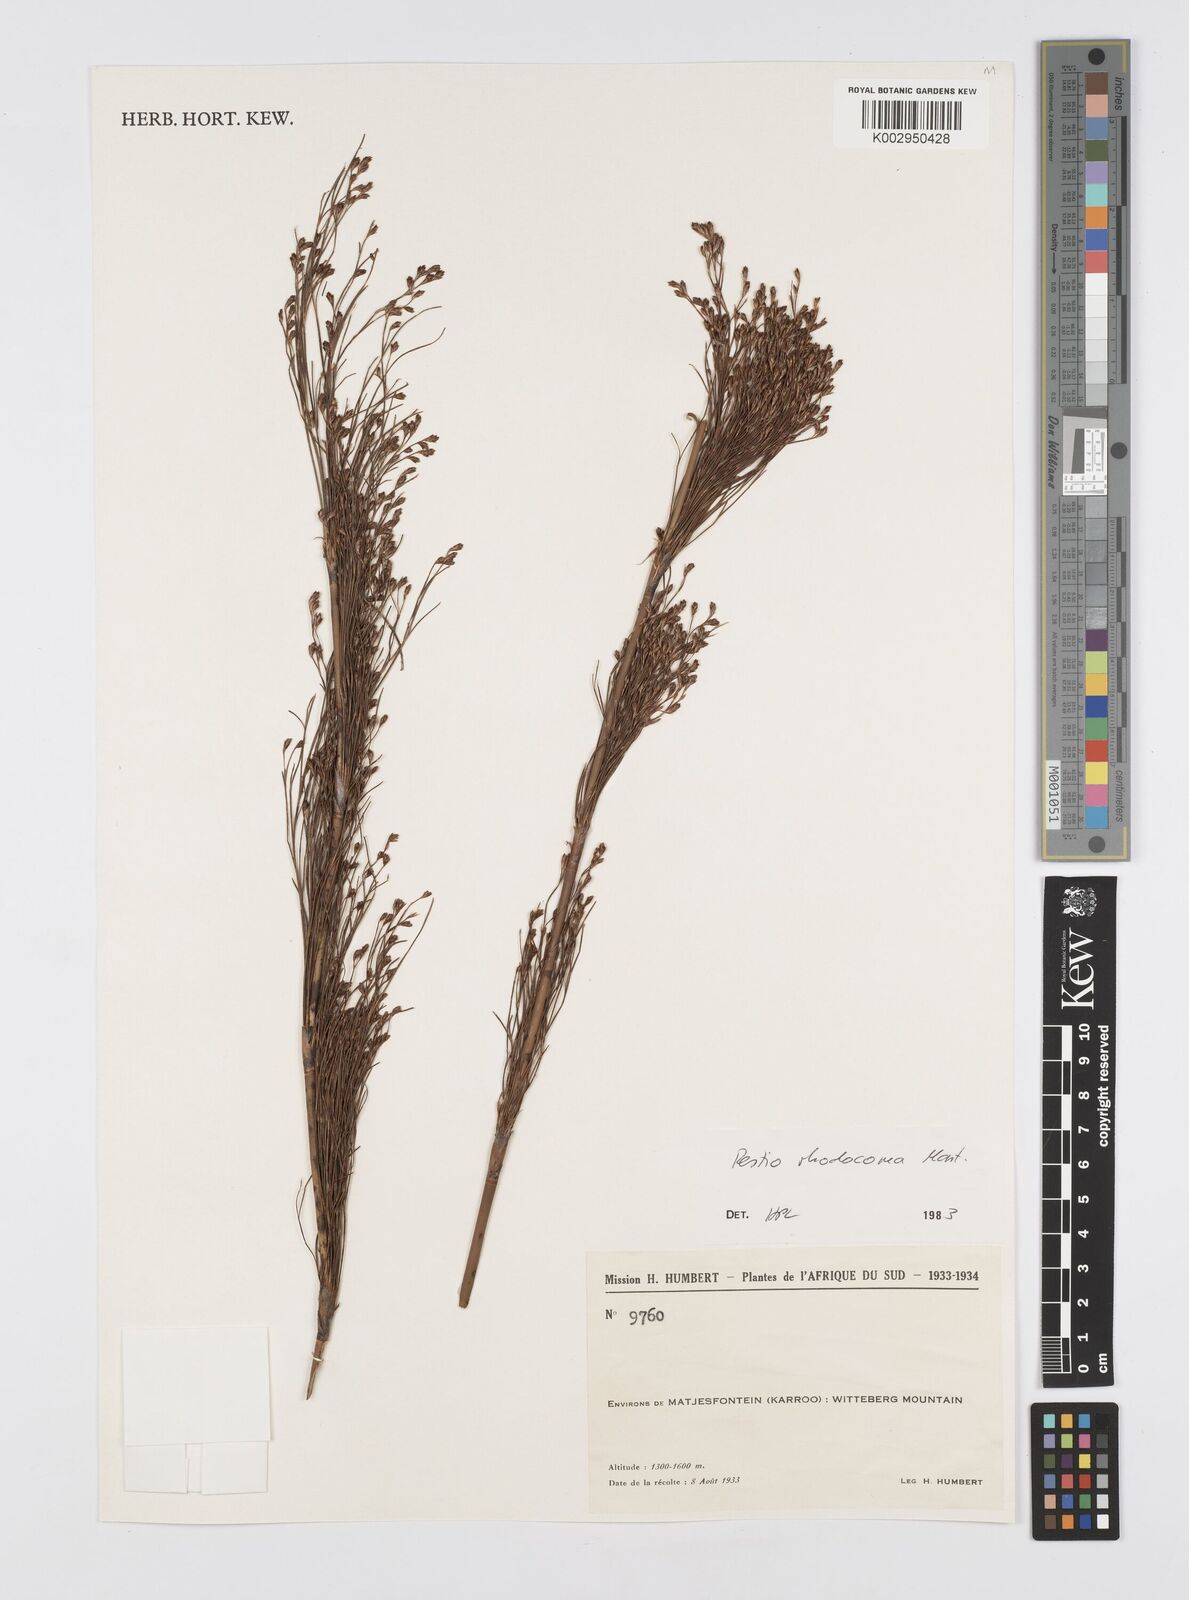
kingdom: Plantae
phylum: Tracheophyta
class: Liliopsida
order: Poales
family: Restionaceae
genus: Rhodocoma
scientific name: Rhodocoma capensis
